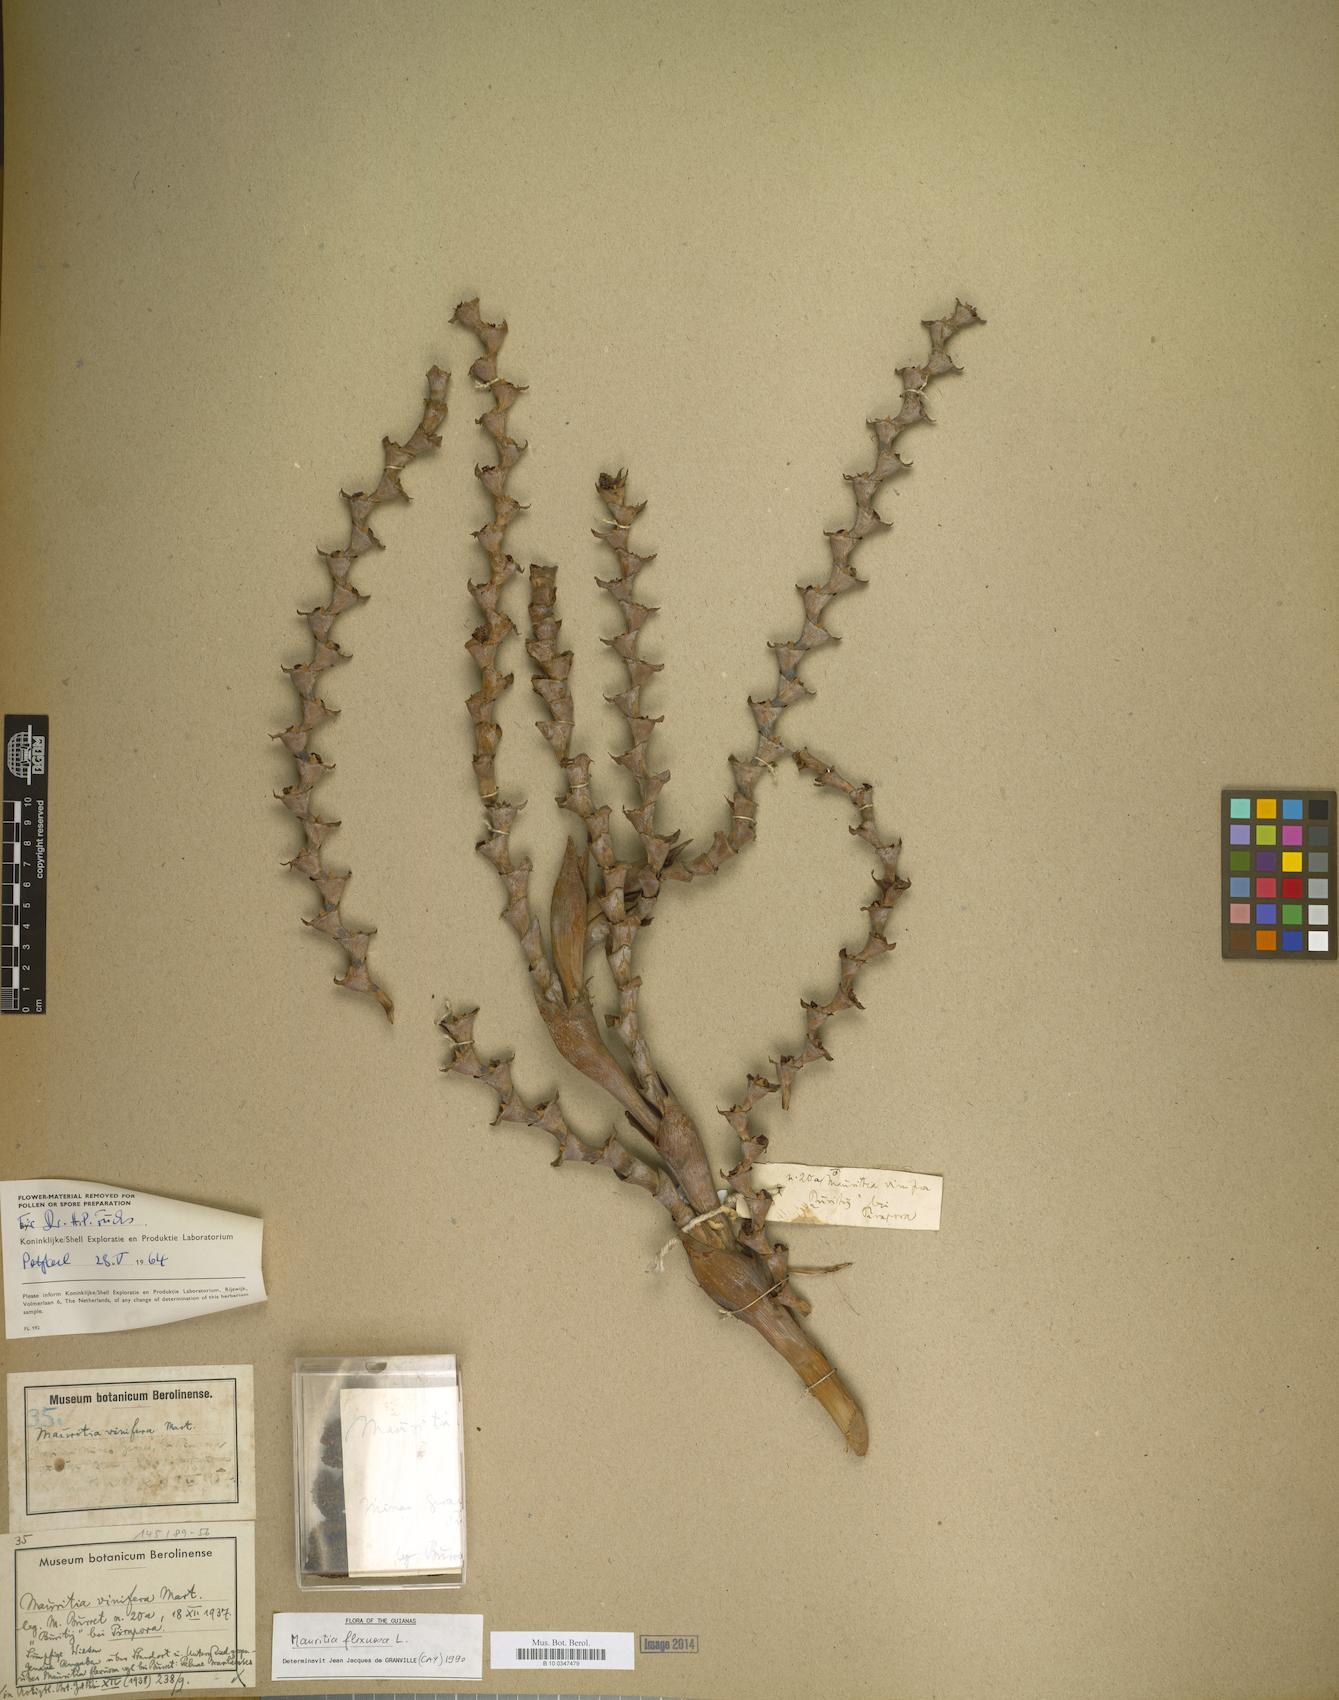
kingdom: Plantae
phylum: Tracheophyta
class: Liliopsida
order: Arecales
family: Arecaceae
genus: Mauritia
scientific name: Mauritia flexuosa
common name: Tree-of-life
